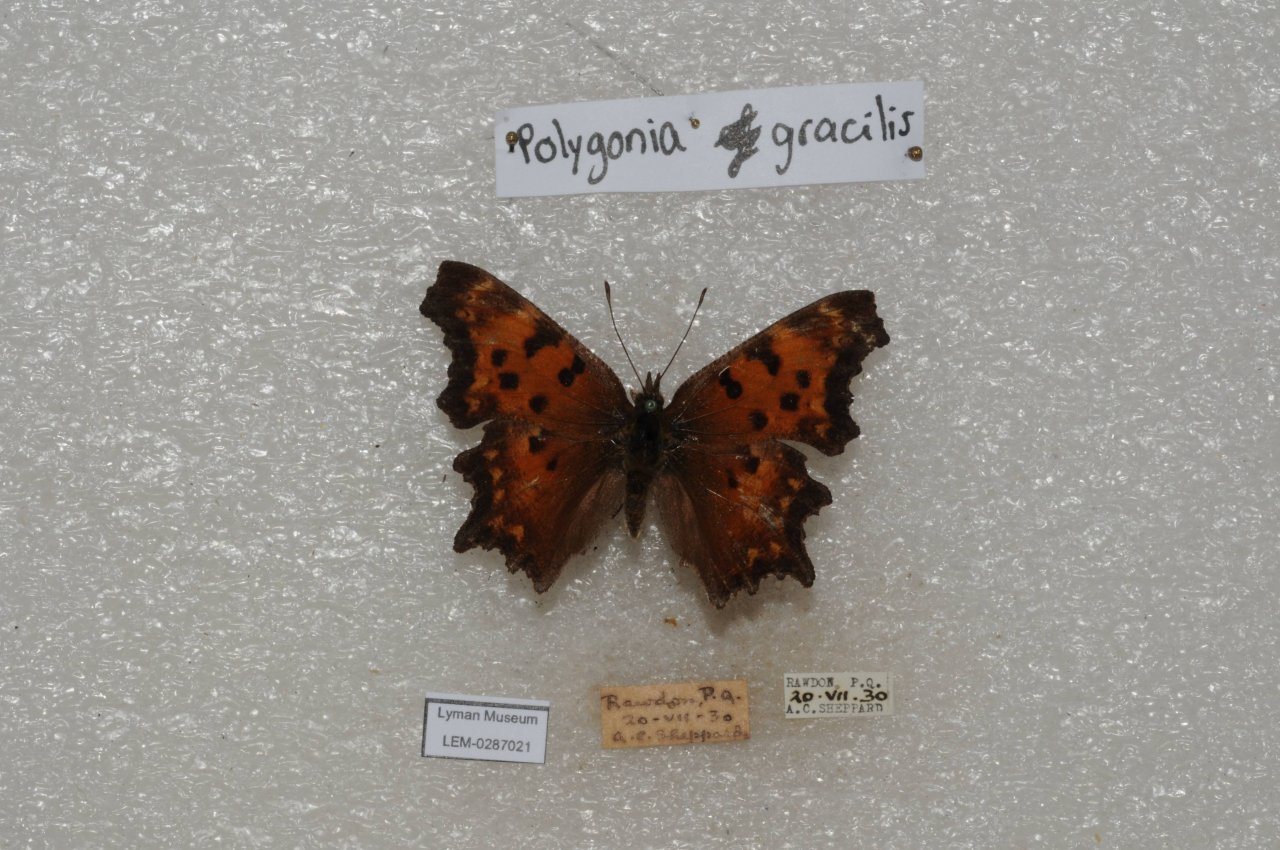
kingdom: Animalia
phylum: Arthropoda
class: Insecta
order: Lepidoptera
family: Nymphalidae
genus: Polygonia
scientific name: Polygonia gracilis
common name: Hoary Comma
